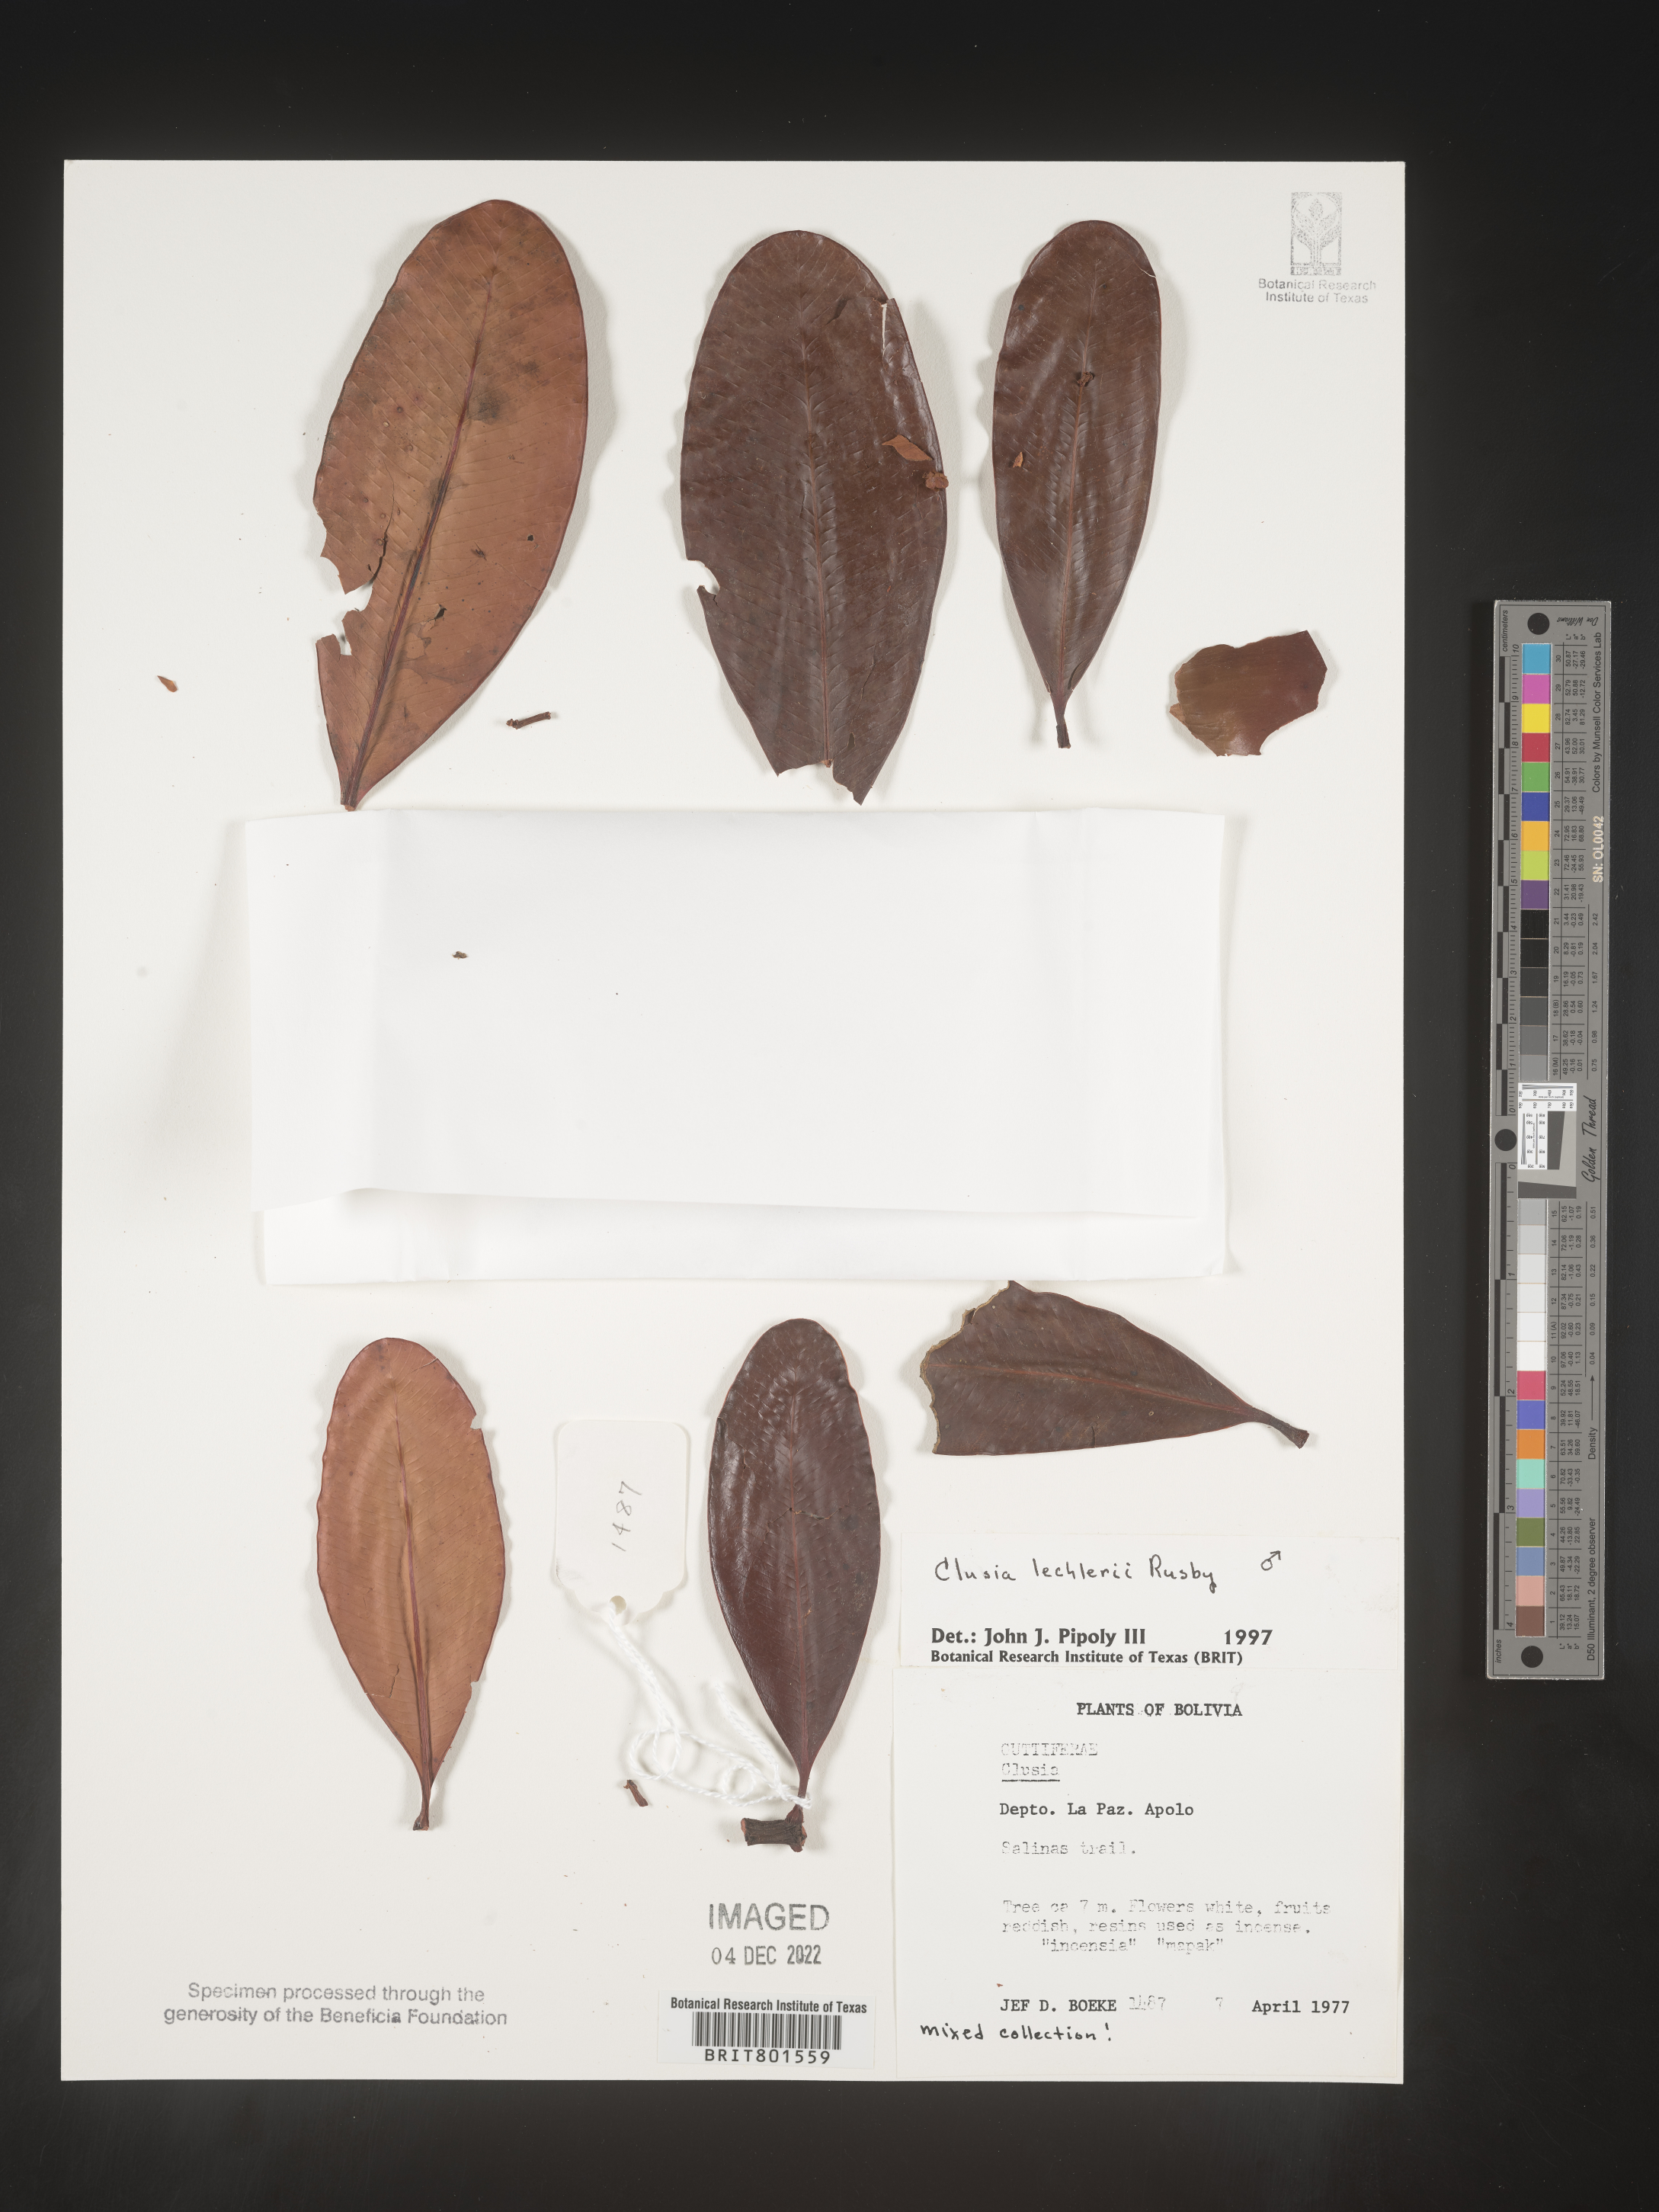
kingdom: Plantae
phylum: Tracheophyta
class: Magnoliopsida
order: Malpighiales
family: Calophyllaceae
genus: Caraipa
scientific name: Caraipa
